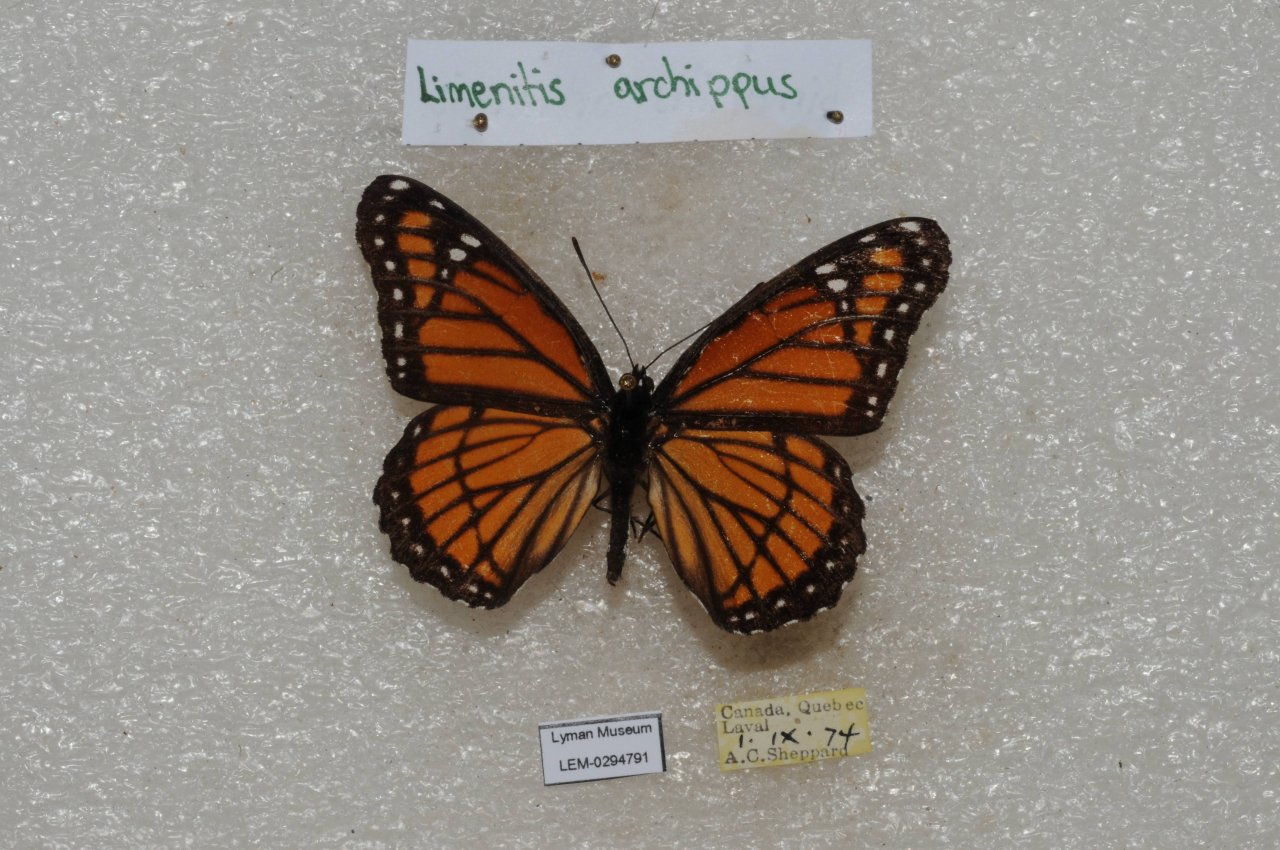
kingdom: Animalia
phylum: Arthropoda
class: Insecta
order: Lepidoptera
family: Nymphalidae
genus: Limenitis
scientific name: Limenitis archippus
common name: Viceroy
